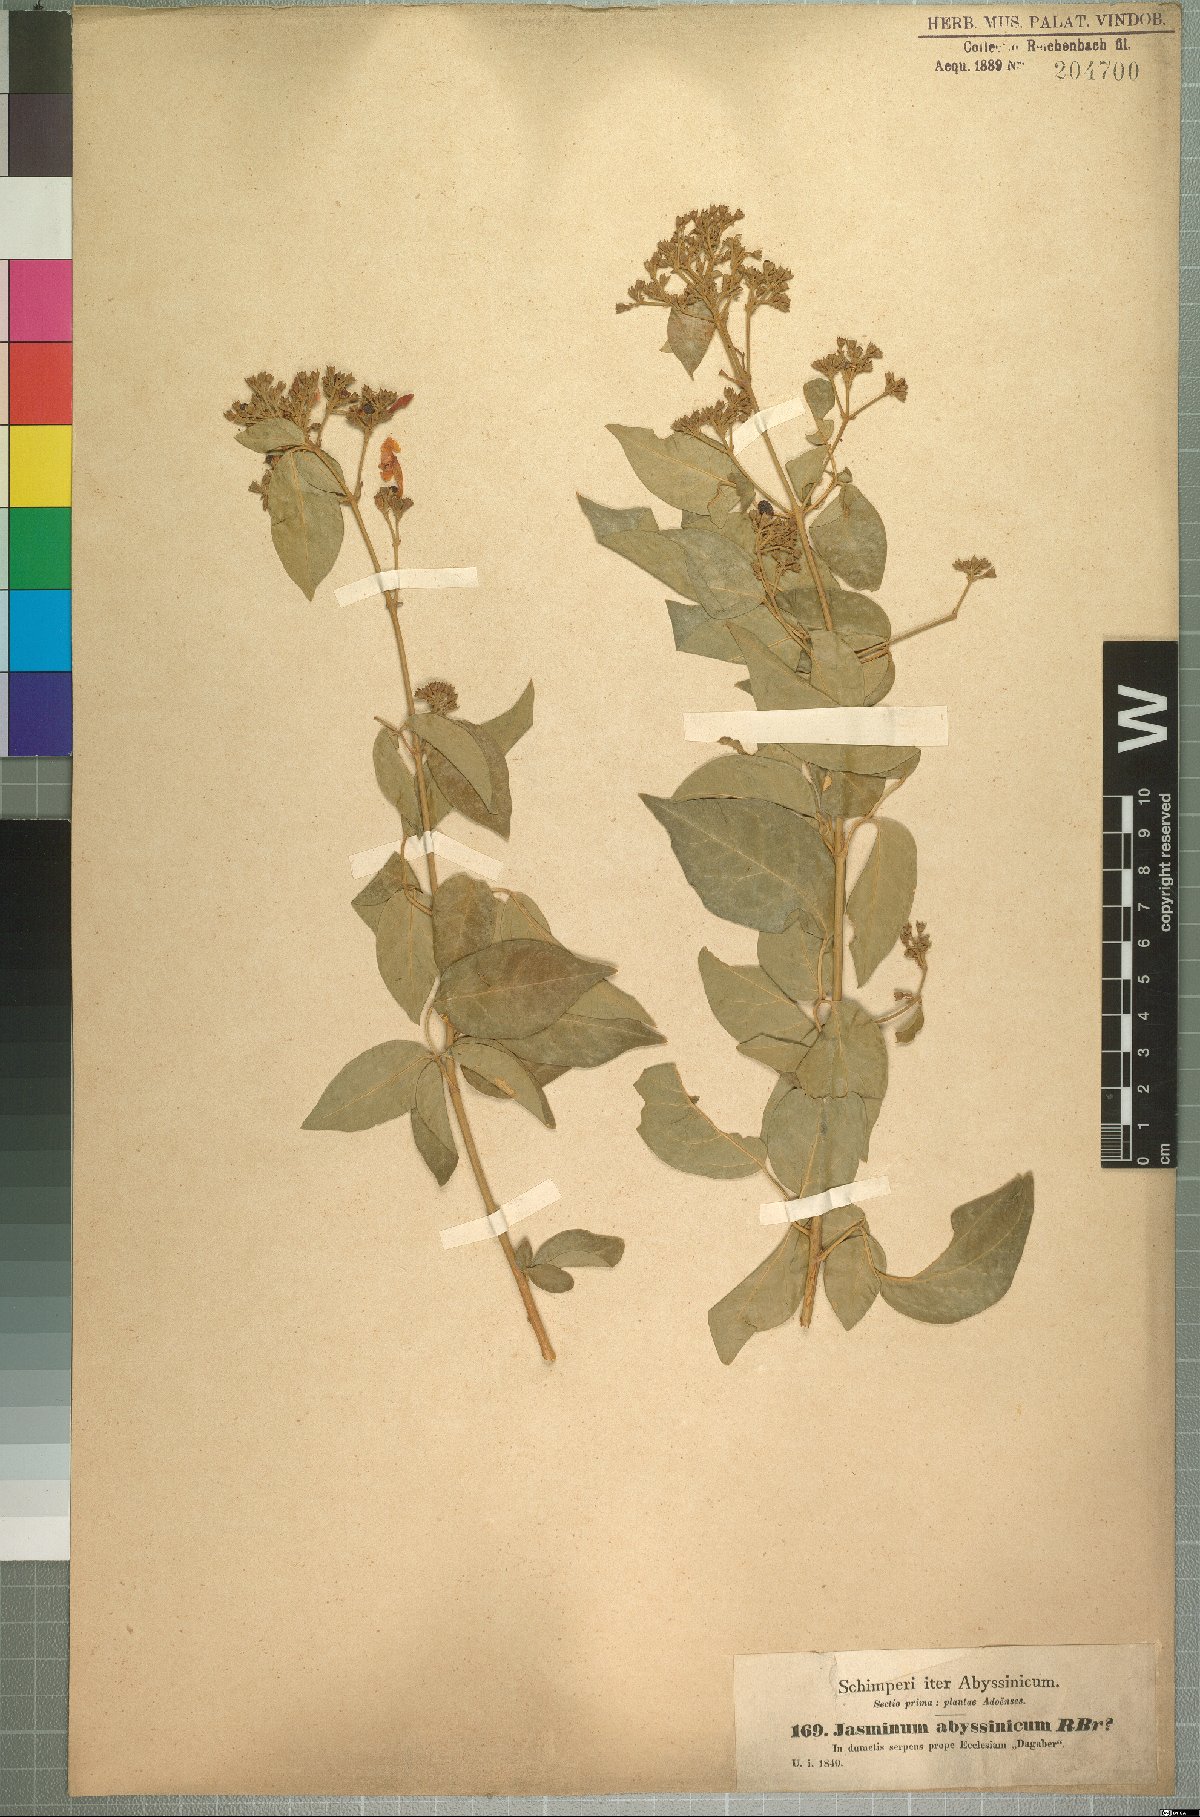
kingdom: Plantae
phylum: Tracheophyta
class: Magnoliopsida
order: Lamiales
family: Oleaceae
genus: Jasminum
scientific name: Jasminum abyssinicum
